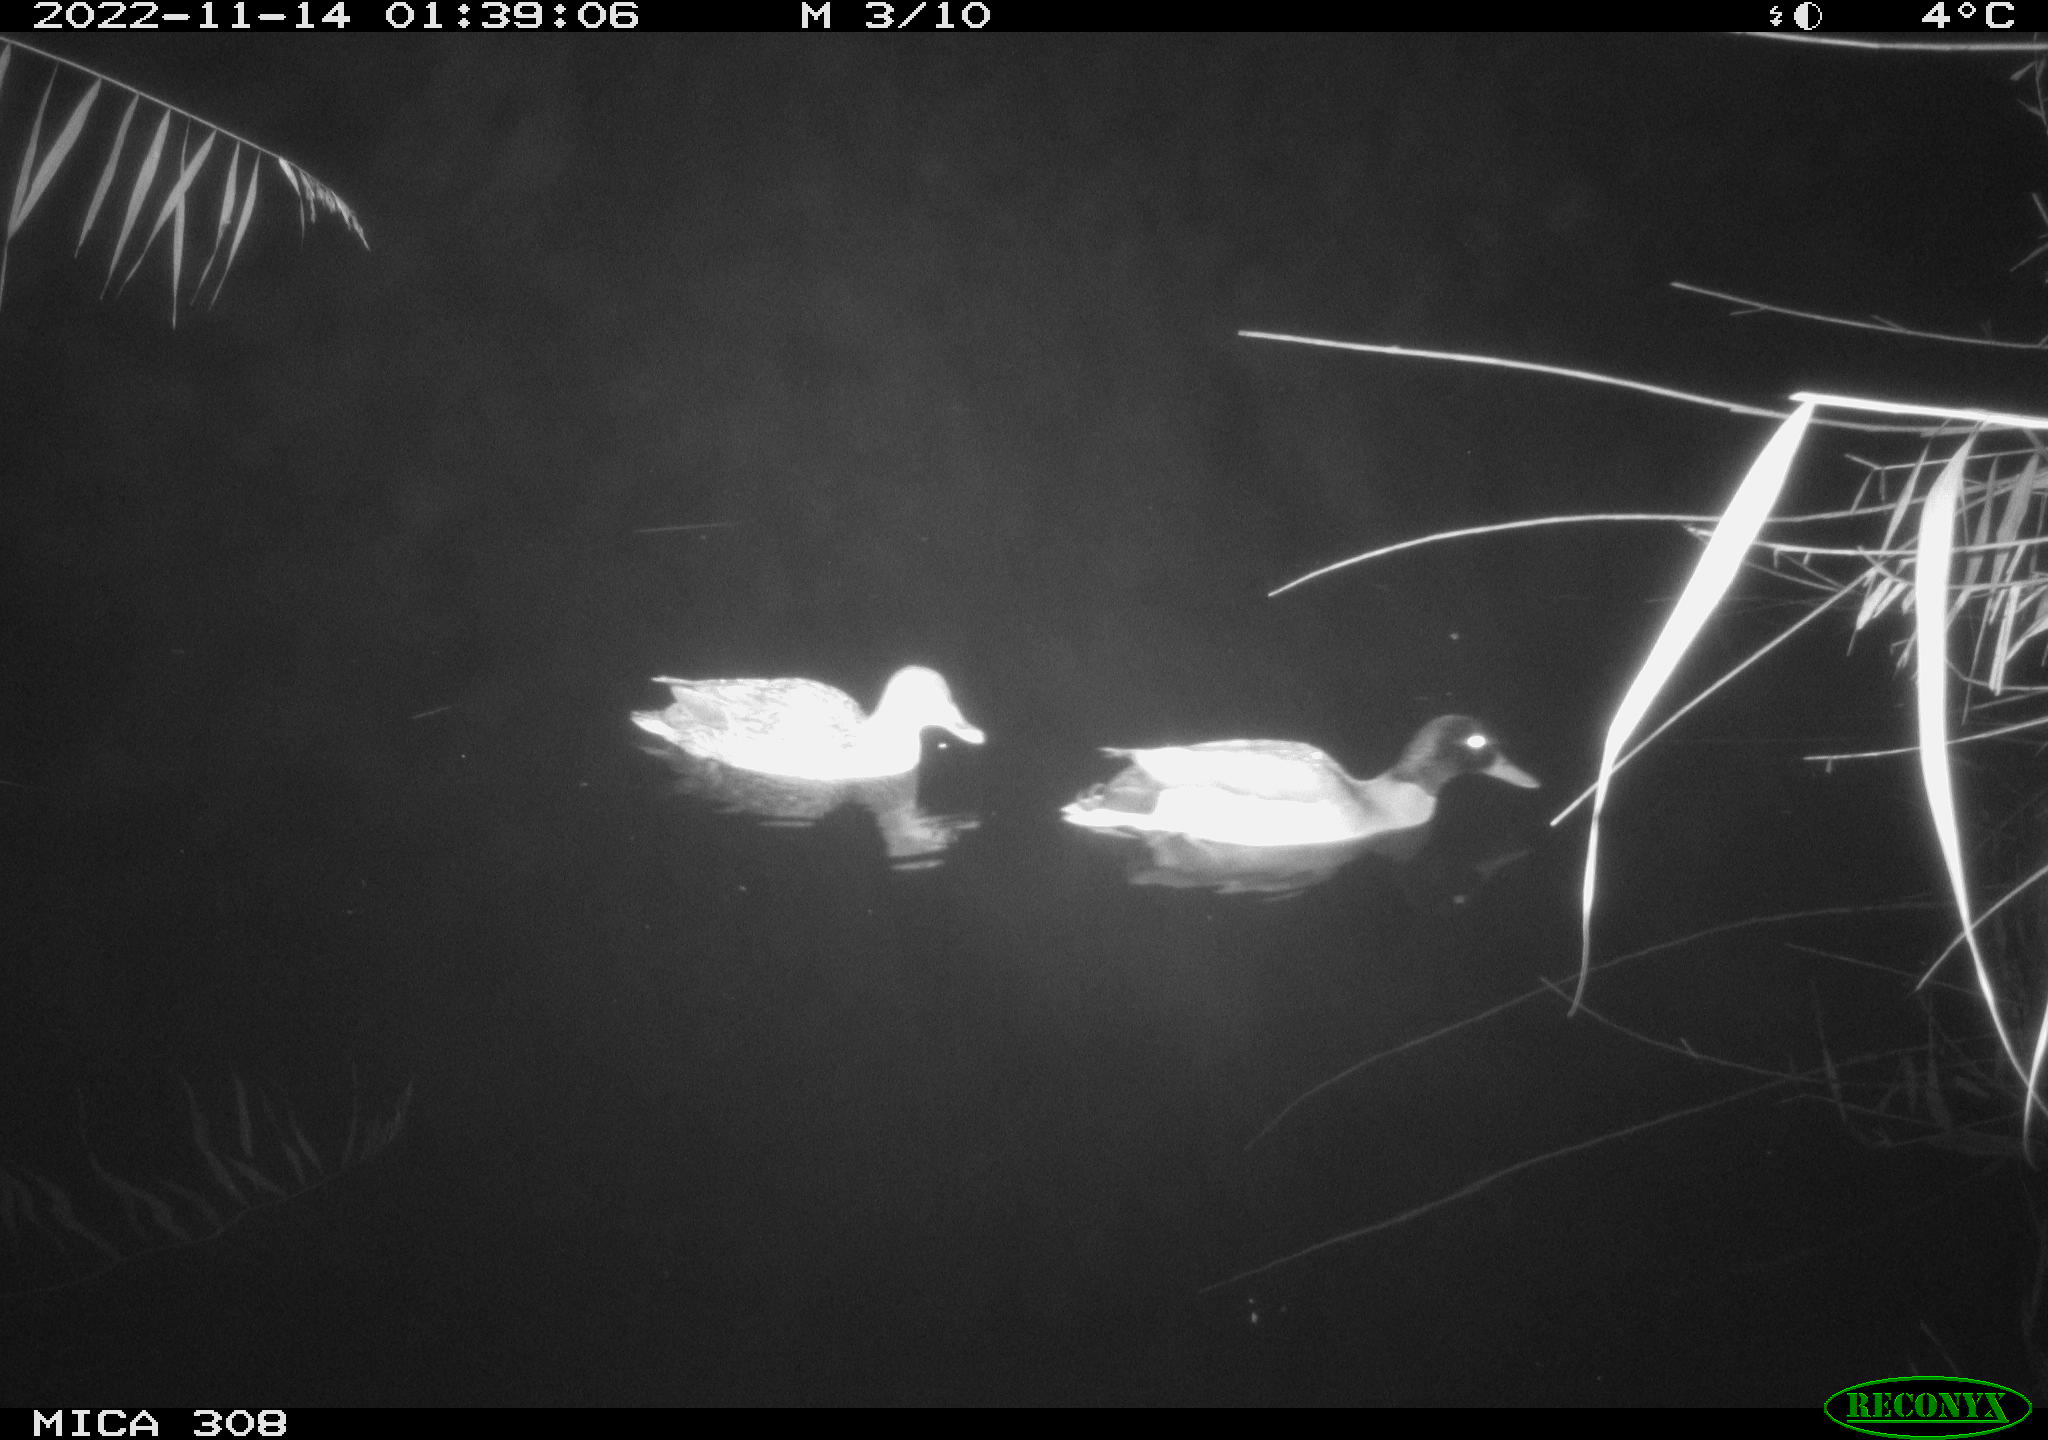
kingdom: Animalia
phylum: Chordata
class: Aves
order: Anseriformes
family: Anatidae
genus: Anas
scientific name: Anas
